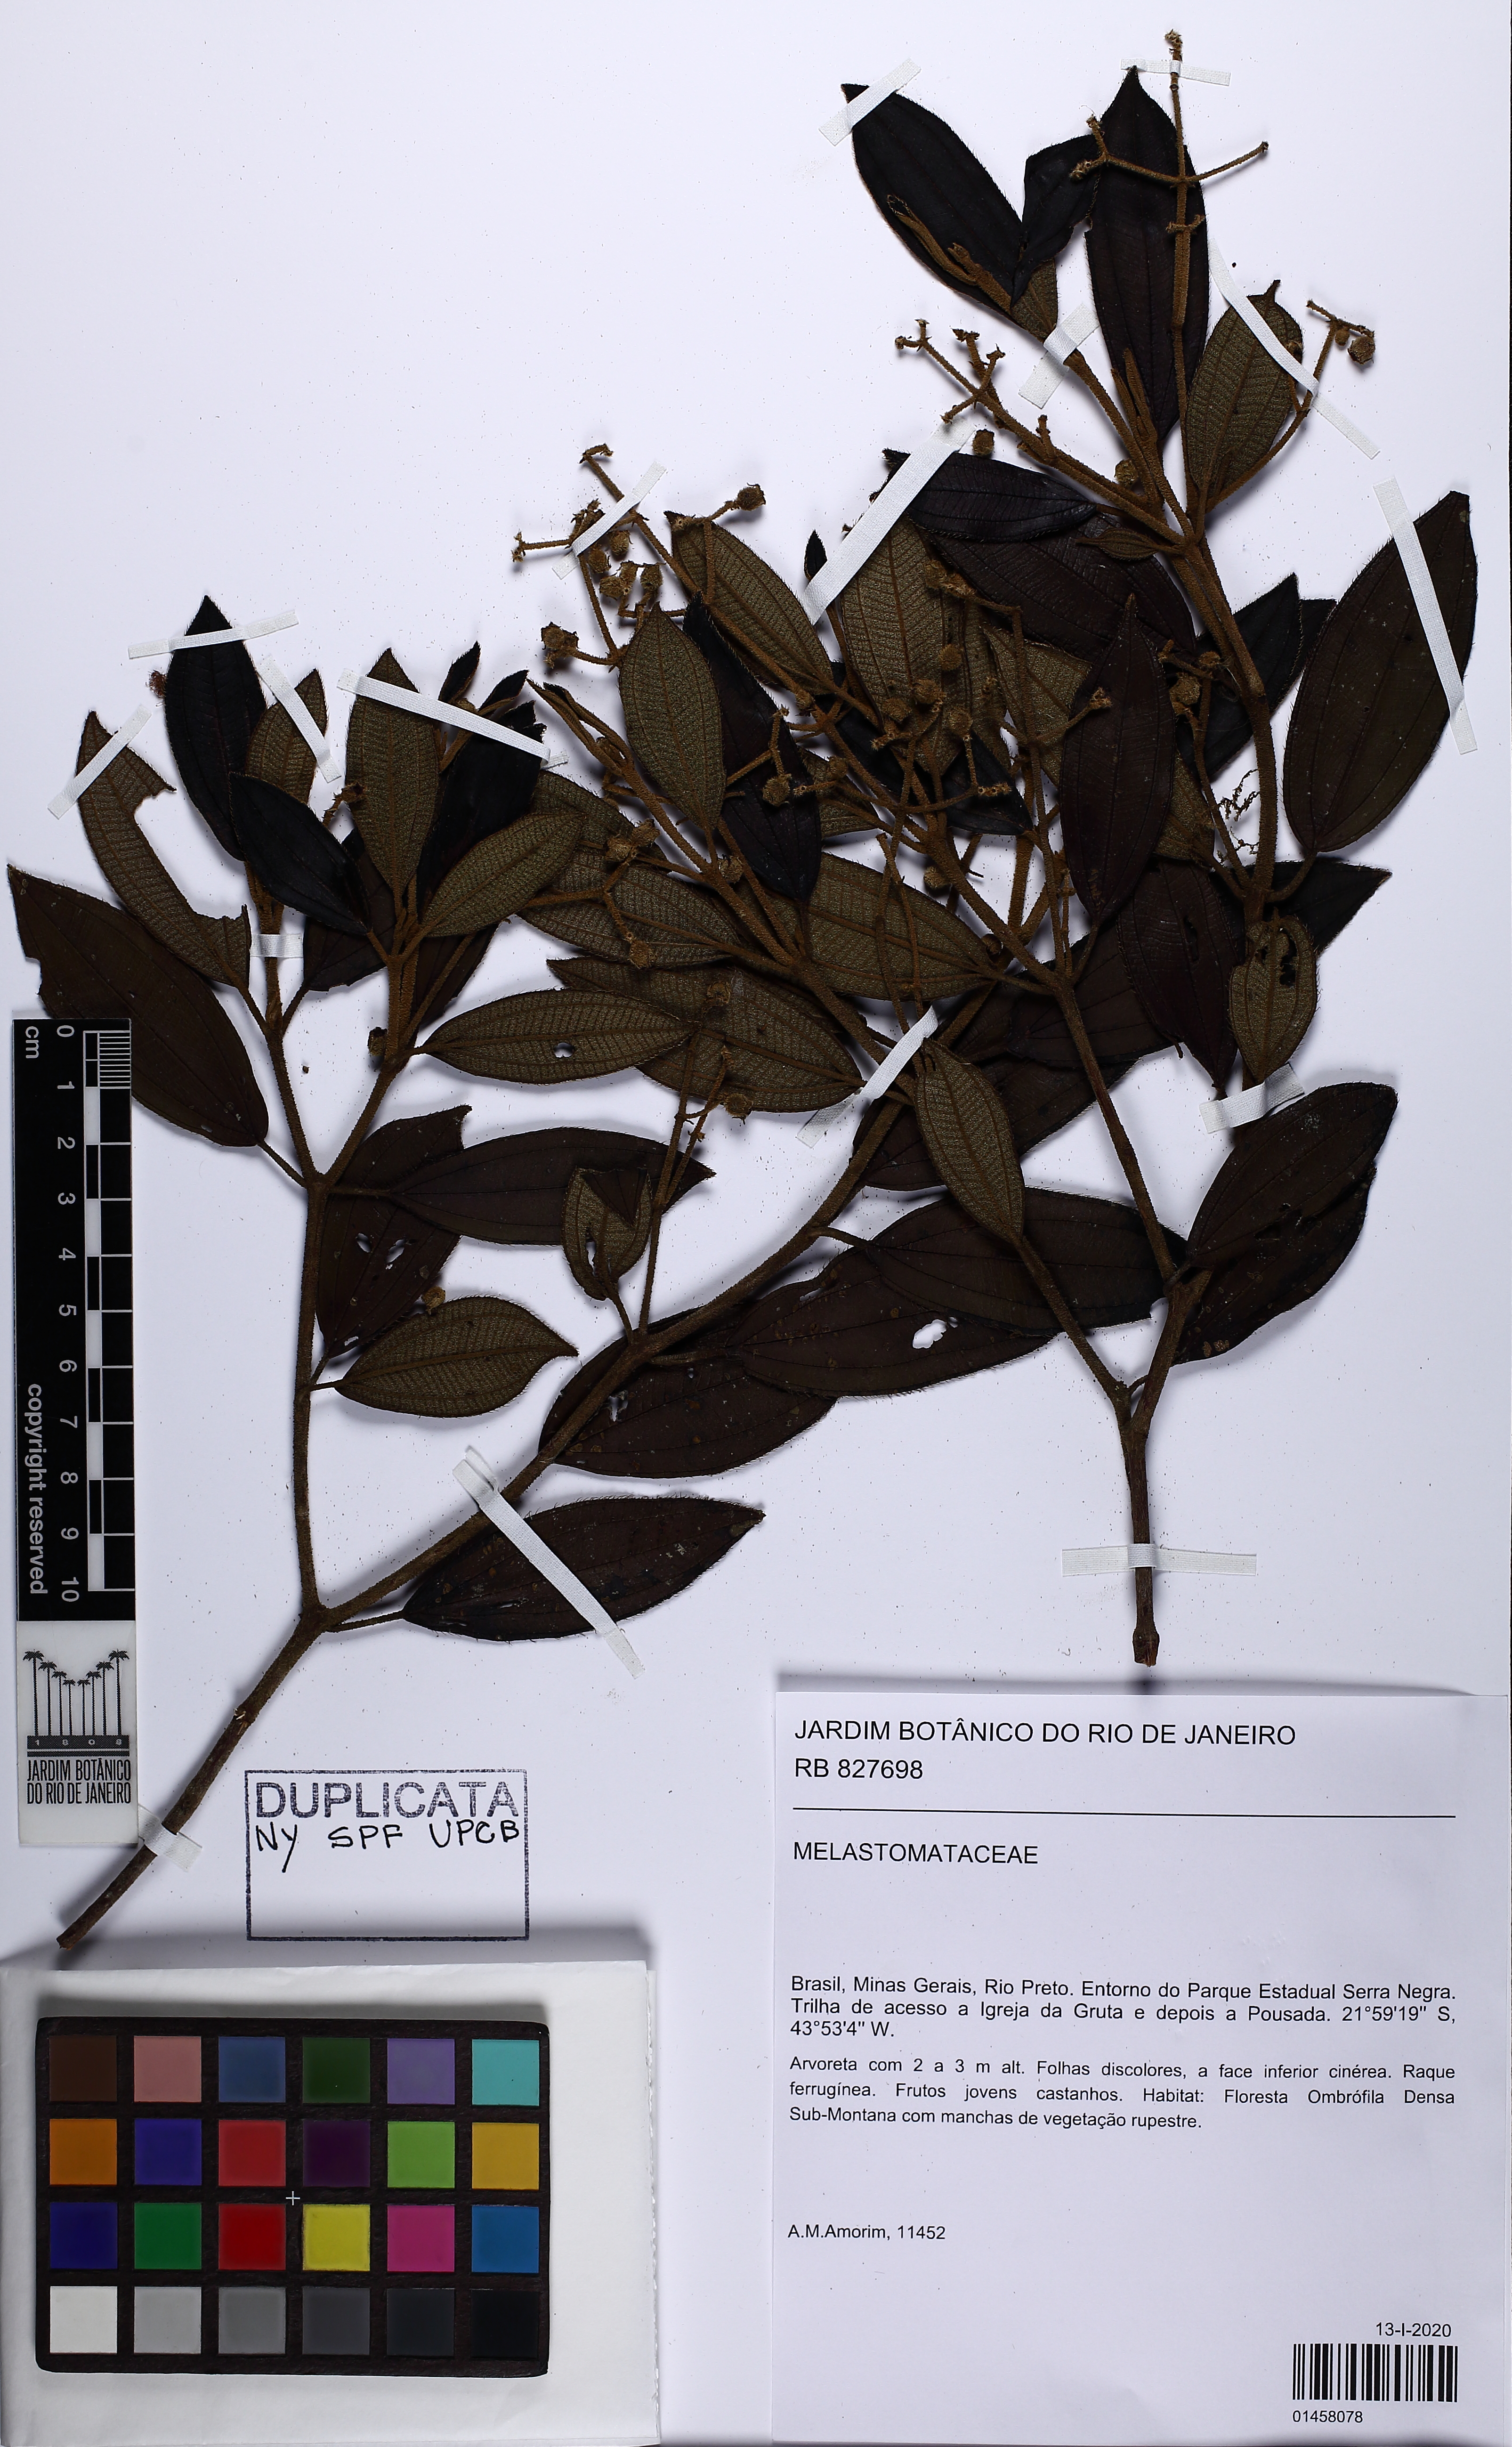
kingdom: Plantae
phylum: Tracheophyta
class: Magnoliopsida
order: Myrtales
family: Melastomataceae
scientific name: Melastomataceae
